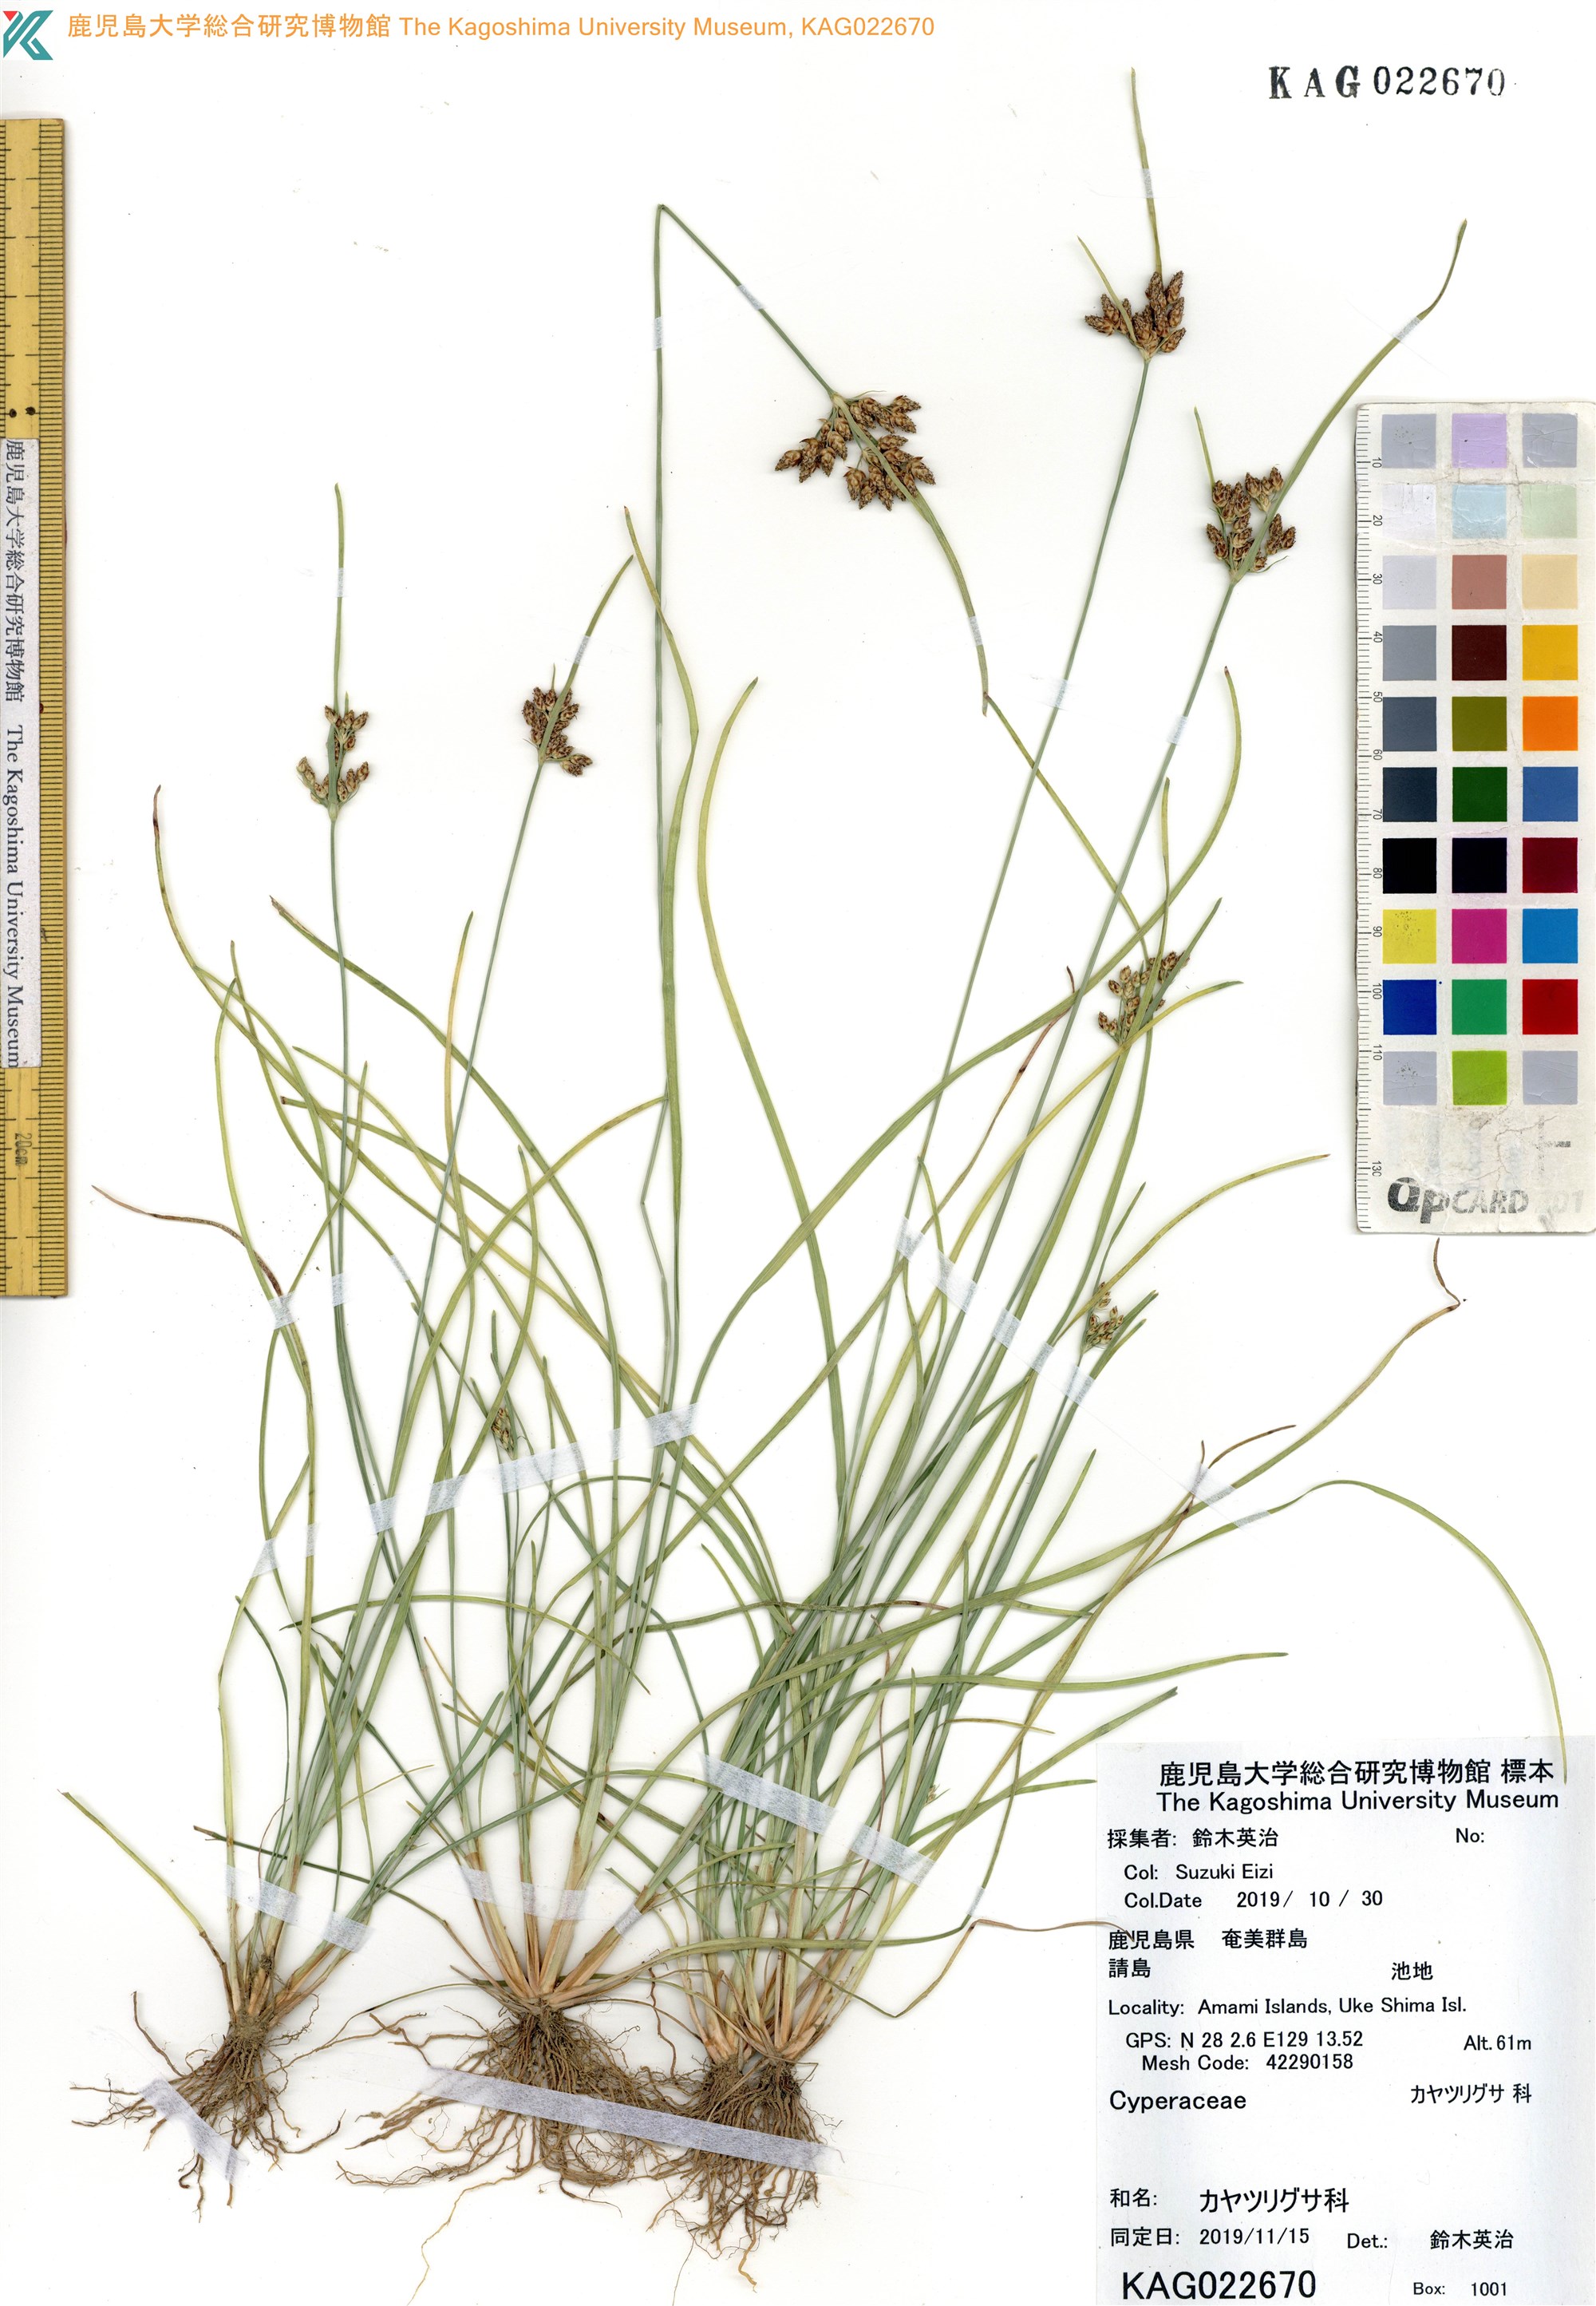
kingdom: Plantae
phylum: Tracheophyta
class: Liliopsida
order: Poales
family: Cyperaceae
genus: Fimbristylis
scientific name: Fimbristylis
